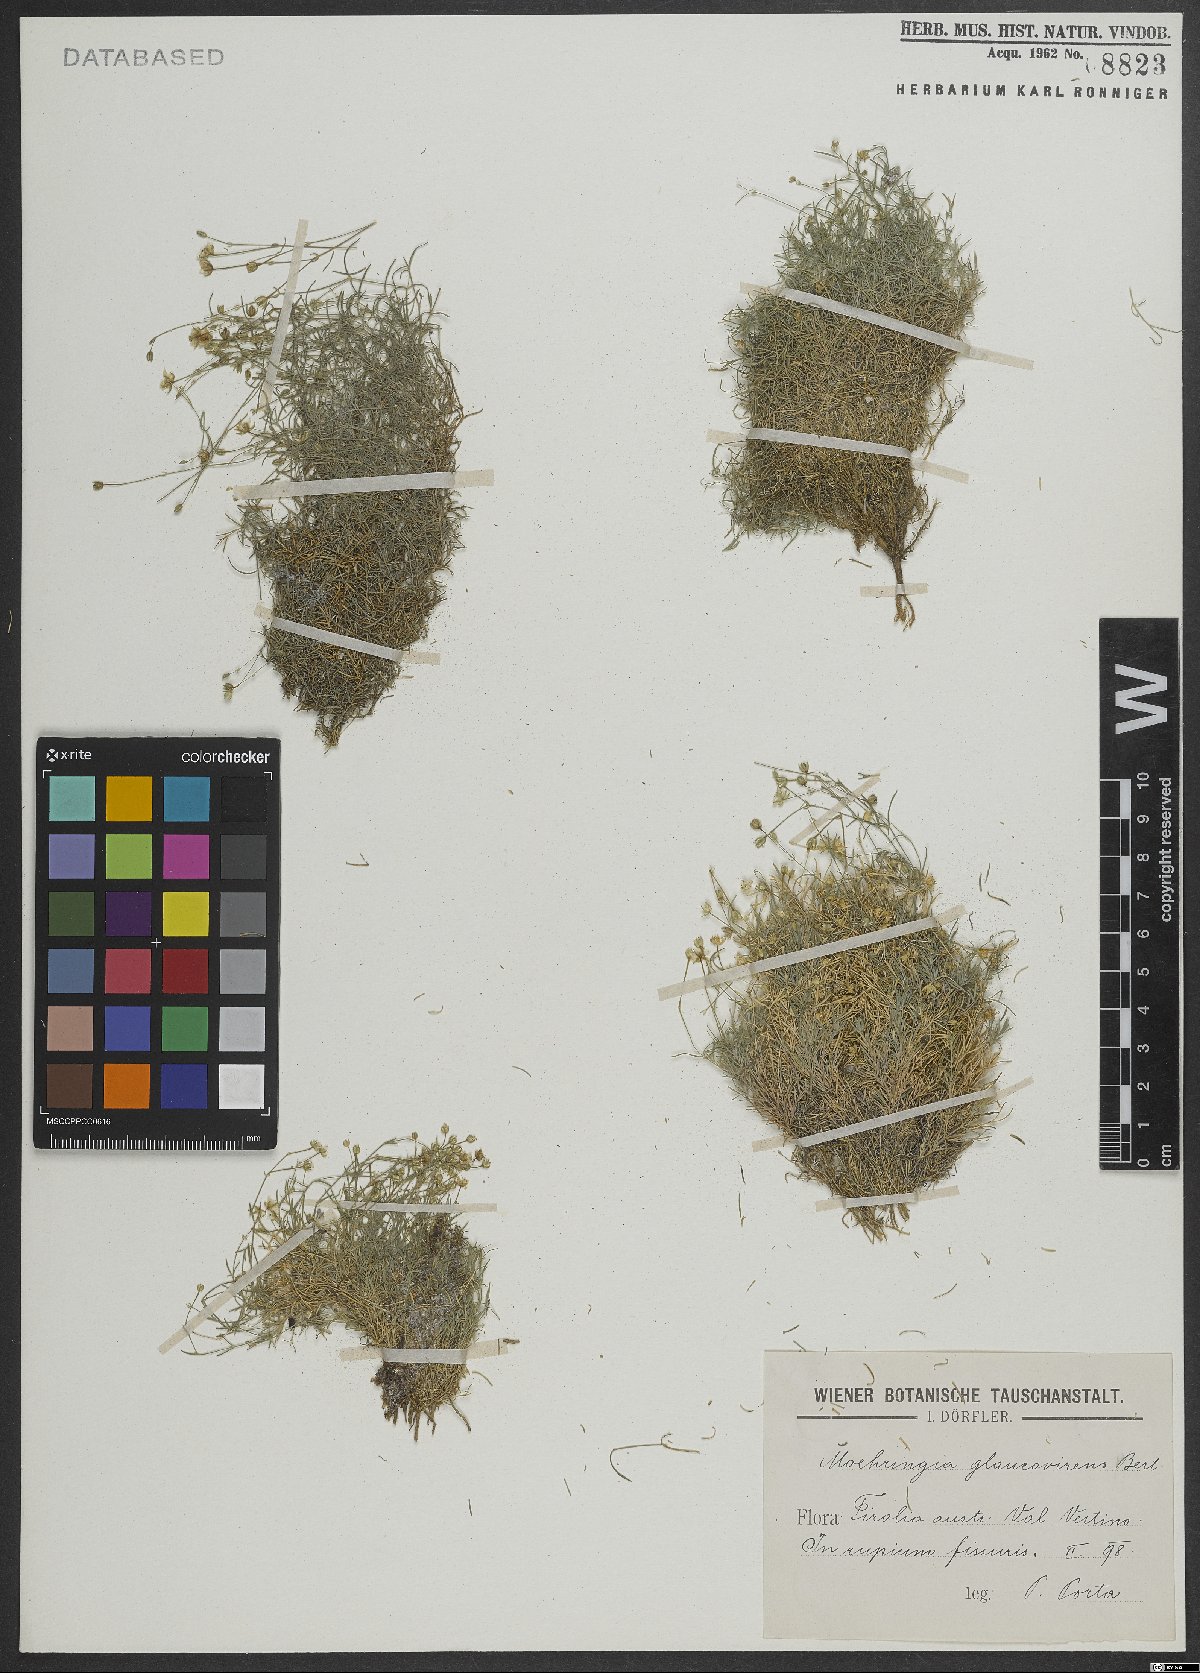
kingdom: Plantae
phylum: Tracheophyta
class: Magnoliopsida
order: Caryophyllales
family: Caryophyllaceae
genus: Moehringia
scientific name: Moehringia glaucovirens
